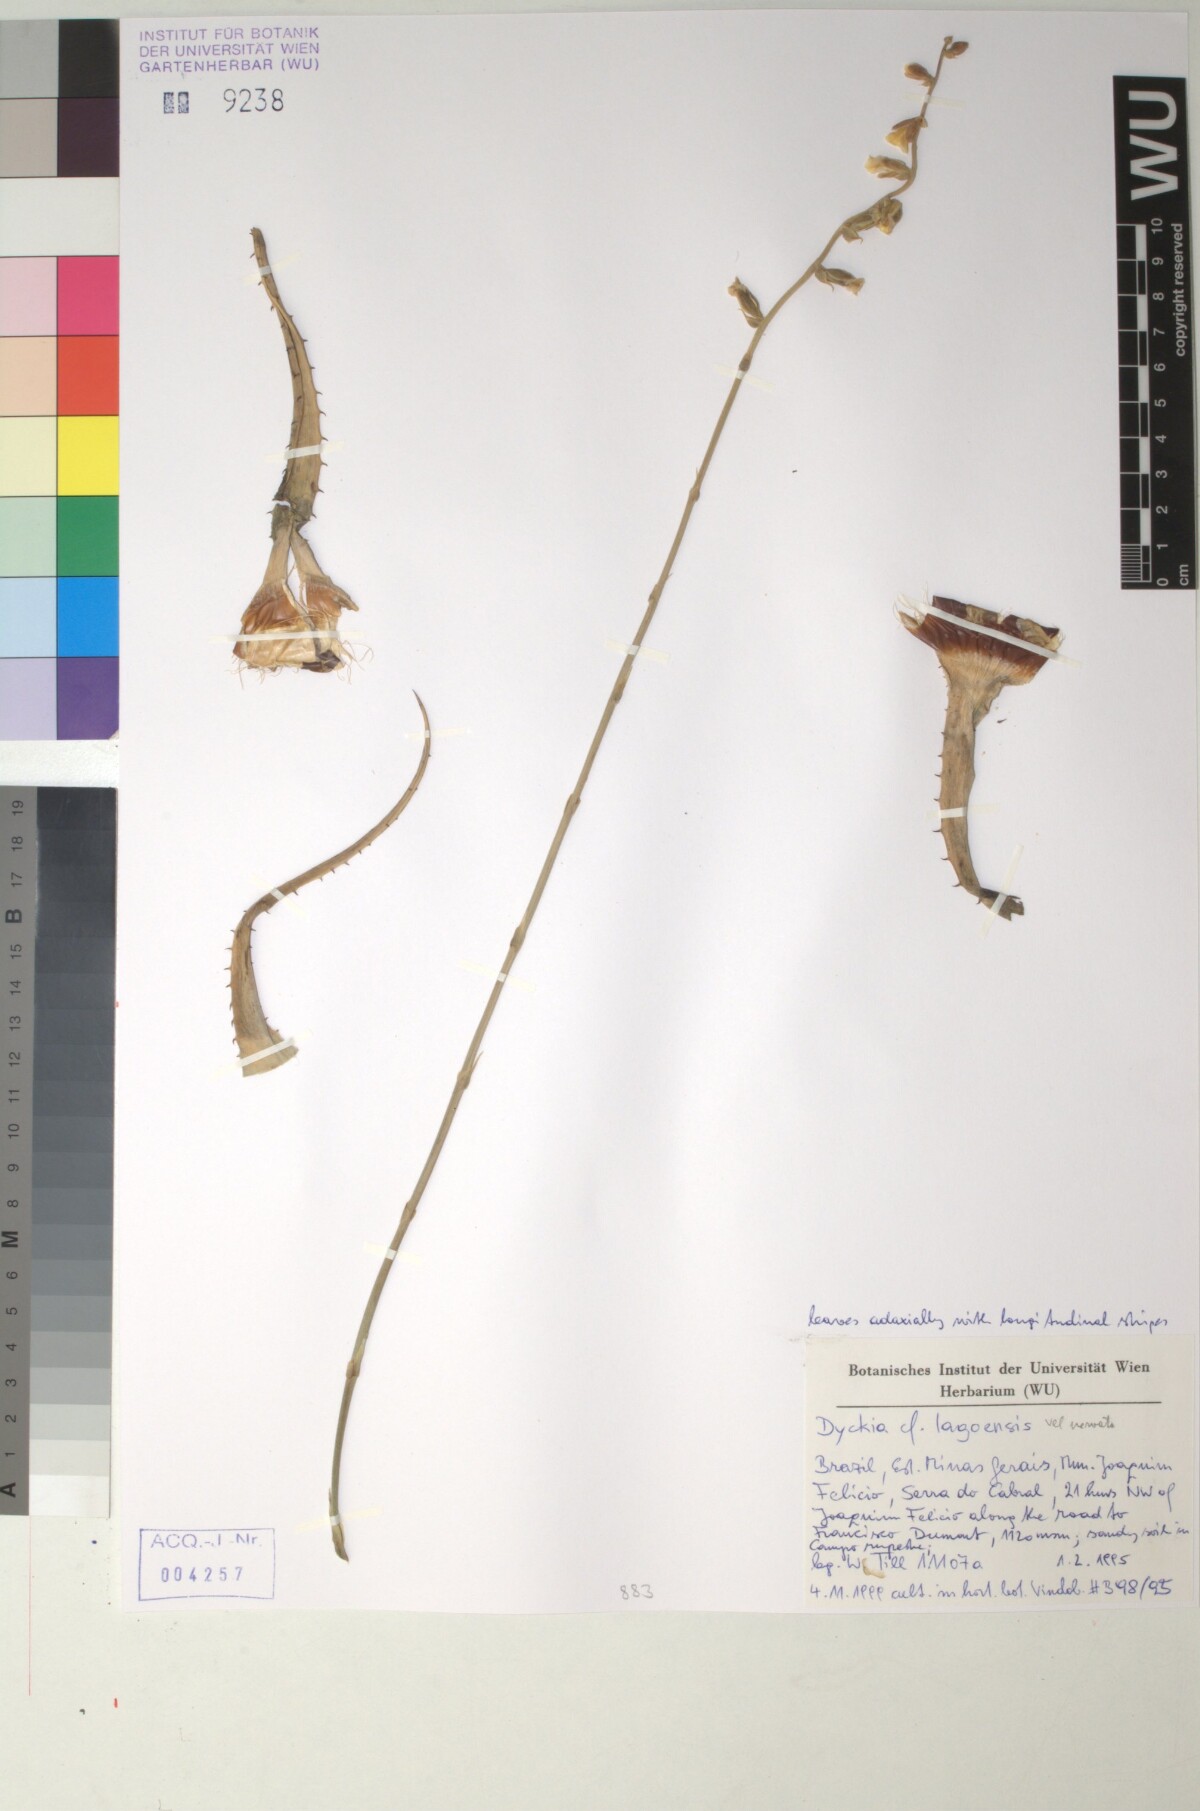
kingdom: Plantae
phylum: Tracheophyta
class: Liliopsida
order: Poales
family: Bromeliaceae
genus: Dyckia
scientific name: Dyckia tenuis
